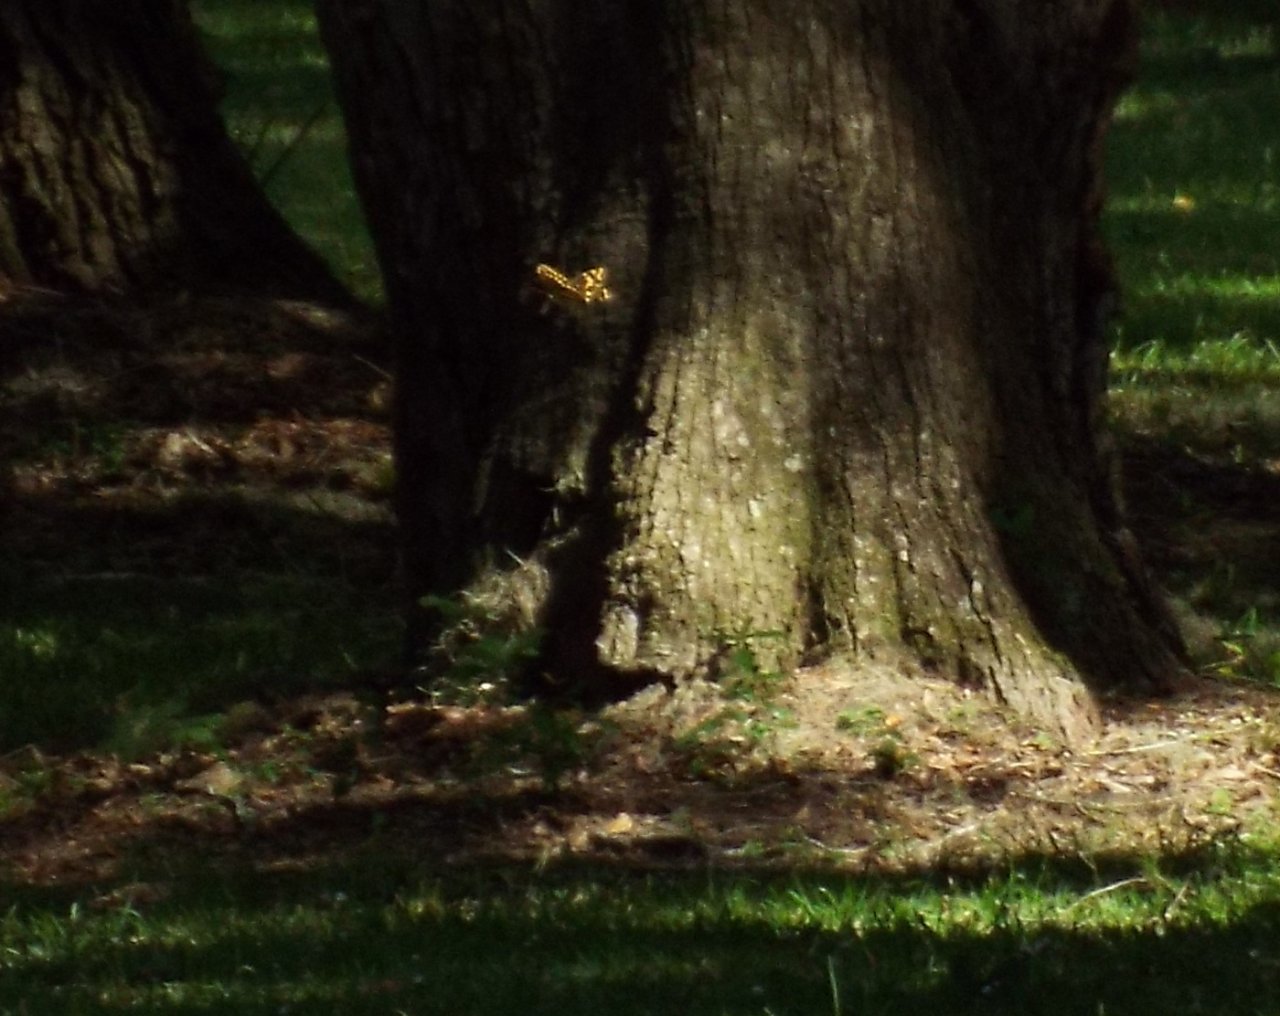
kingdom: Animalia
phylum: Arthropoda
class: Insecta
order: Lepidoptera
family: Papilionidae
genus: Pterourus
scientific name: Pterourus palamedes
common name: Palamedes Swallowtail
